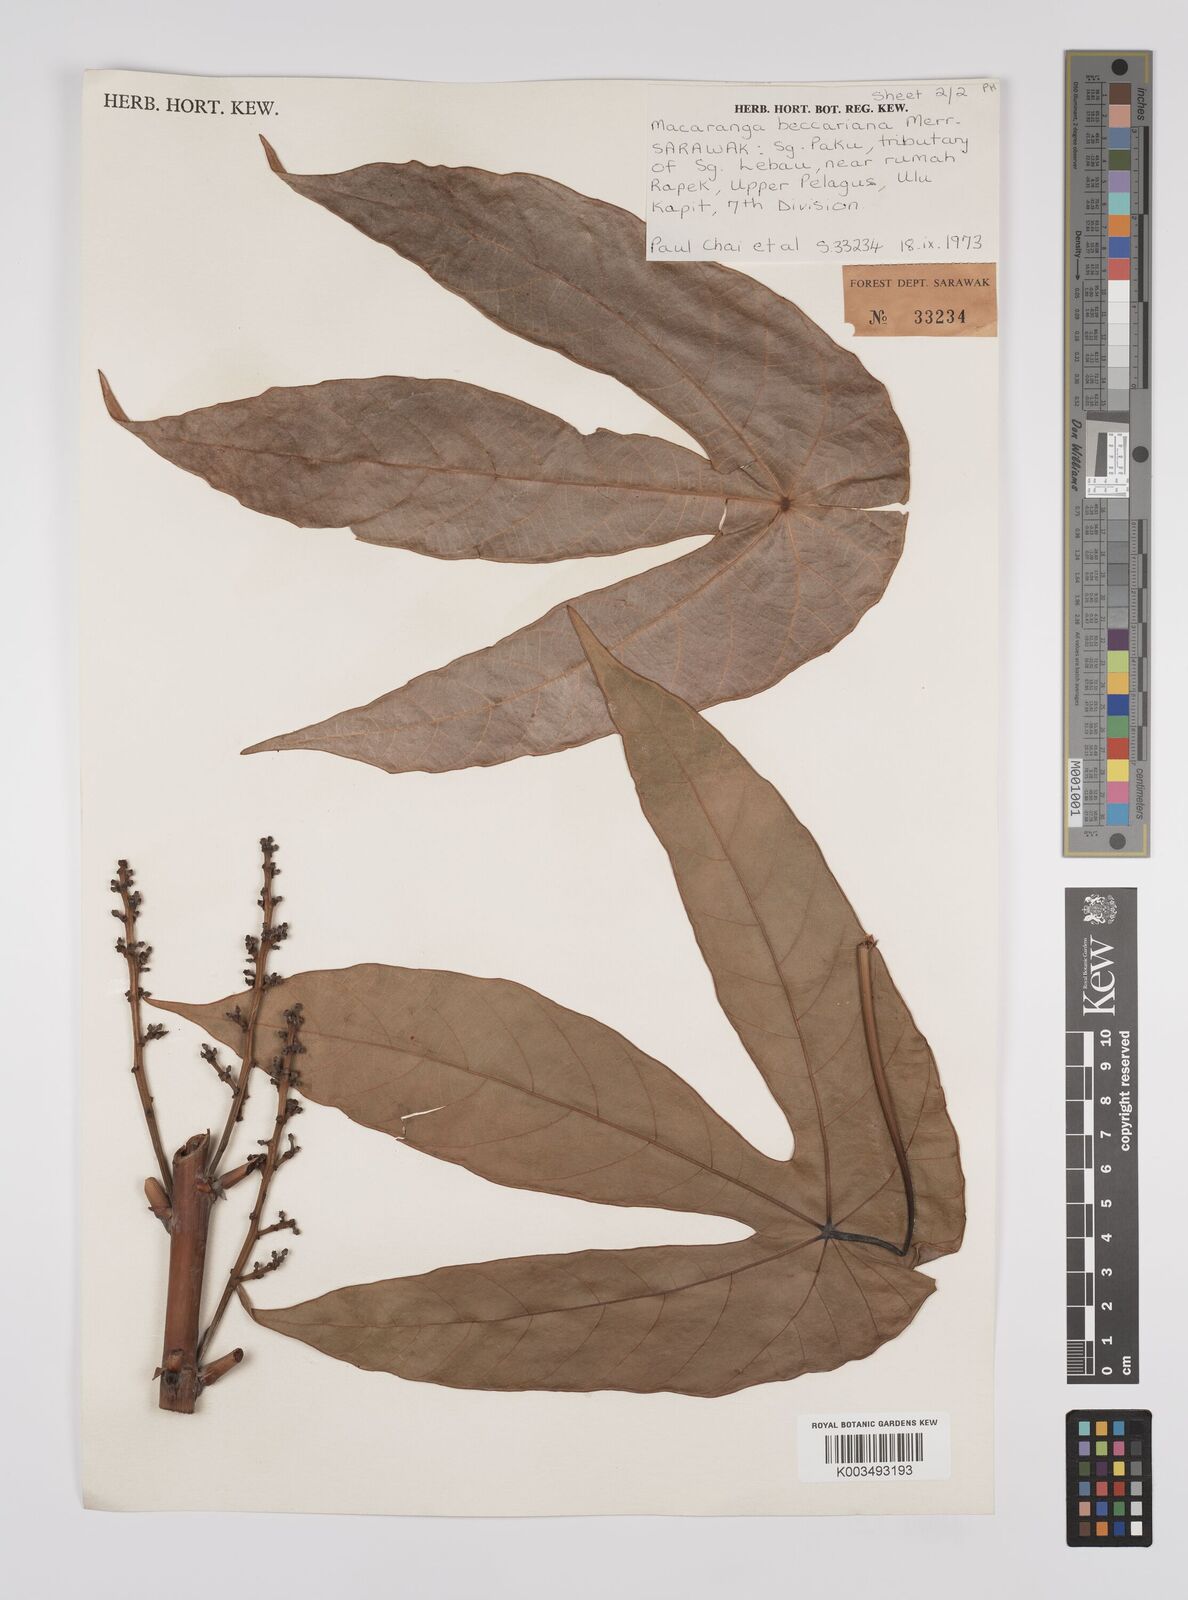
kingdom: Plantae
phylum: Tracheophyta
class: Magnoliopsida
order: Malpighiales
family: Euphorbiaceae
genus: Macaranga
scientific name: Macaranga beccariana
